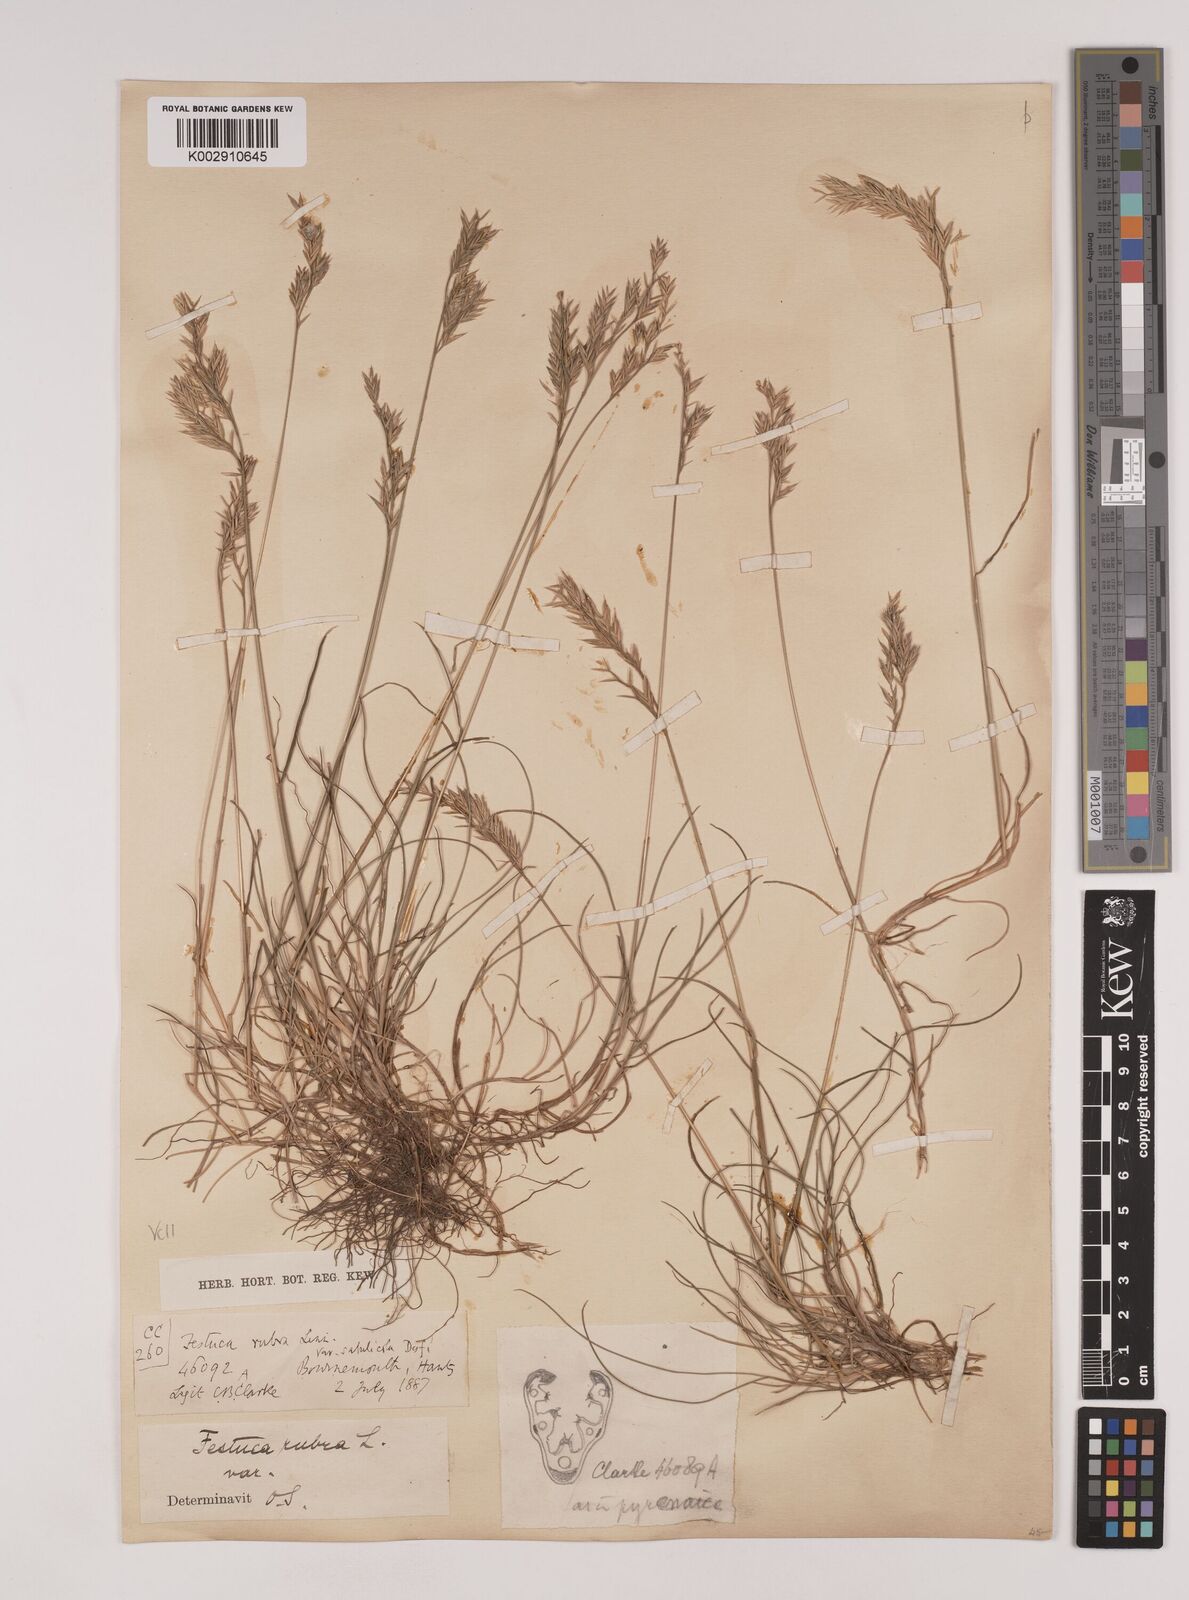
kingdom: Plantae
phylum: Tracheophyta
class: Liliopsida
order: Poales
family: Poaceae
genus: Festuca
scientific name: Festuca rubra
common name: Red fescue
